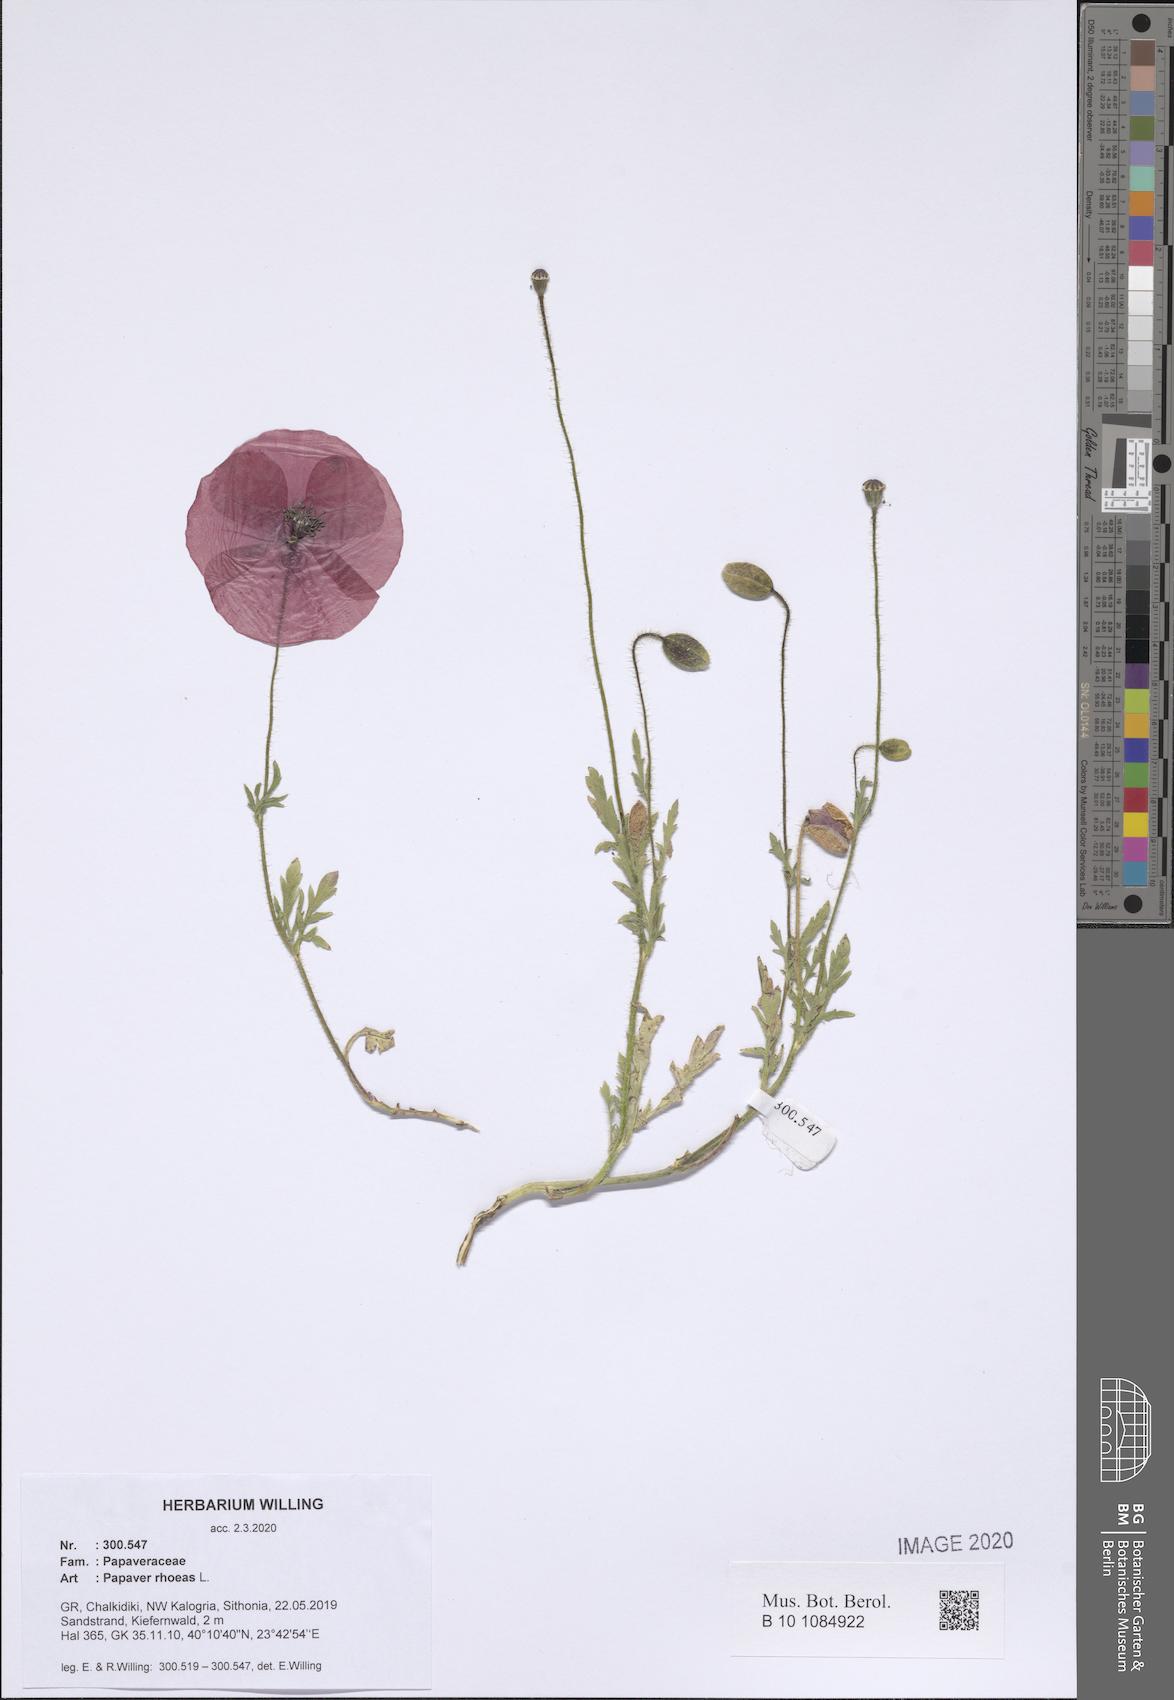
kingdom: Plantae
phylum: Tracheophyta
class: Magnoliopsida
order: Ranunculales
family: Papaveraceae
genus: Papaver
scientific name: Papaver rhoeas
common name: Corn poppy
